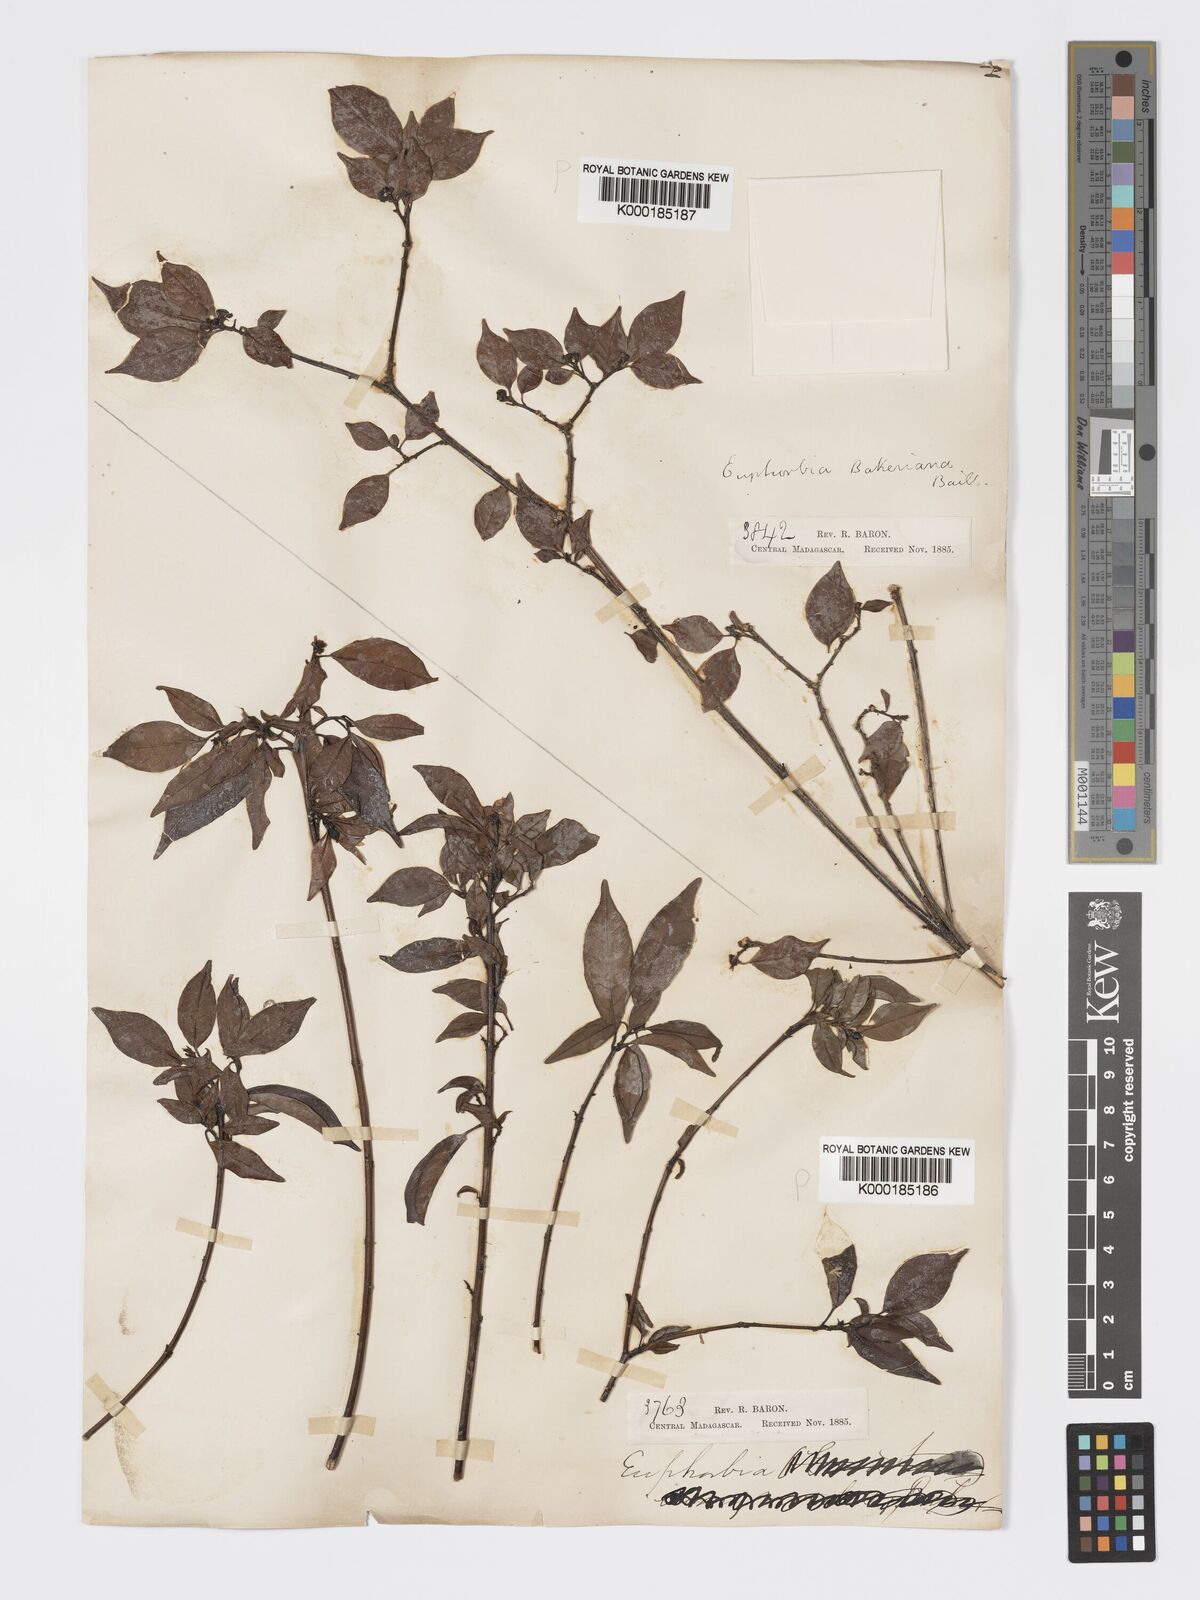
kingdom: Plantae
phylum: Tracheophyta
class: Magnoliopsida
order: Malpighiales
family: Euphorbiaceae
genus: Euphorbia
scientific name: Euphorbia tetraptera
